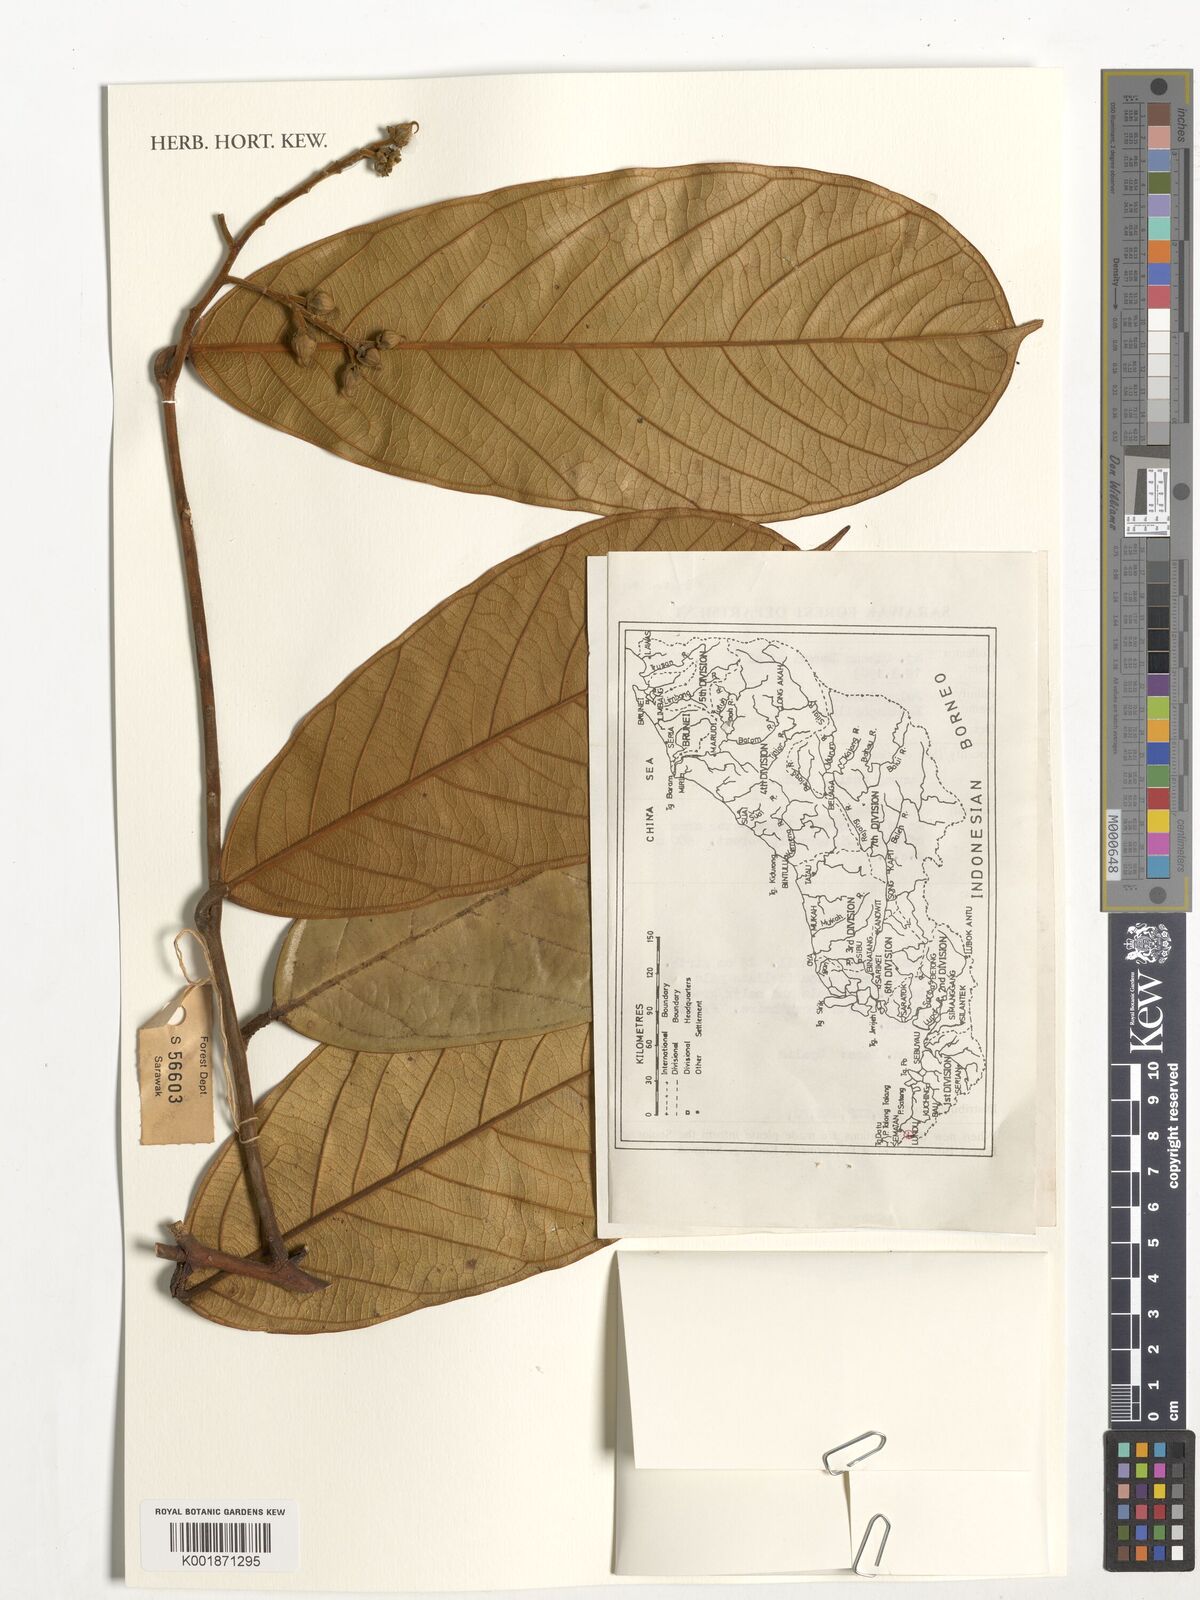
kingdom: Plantae
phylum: Tracheophyta
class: Magnoliopsida
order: Fabales
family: Polygalaceae
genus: Xanthophyllum
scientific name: Xanthophyllum
